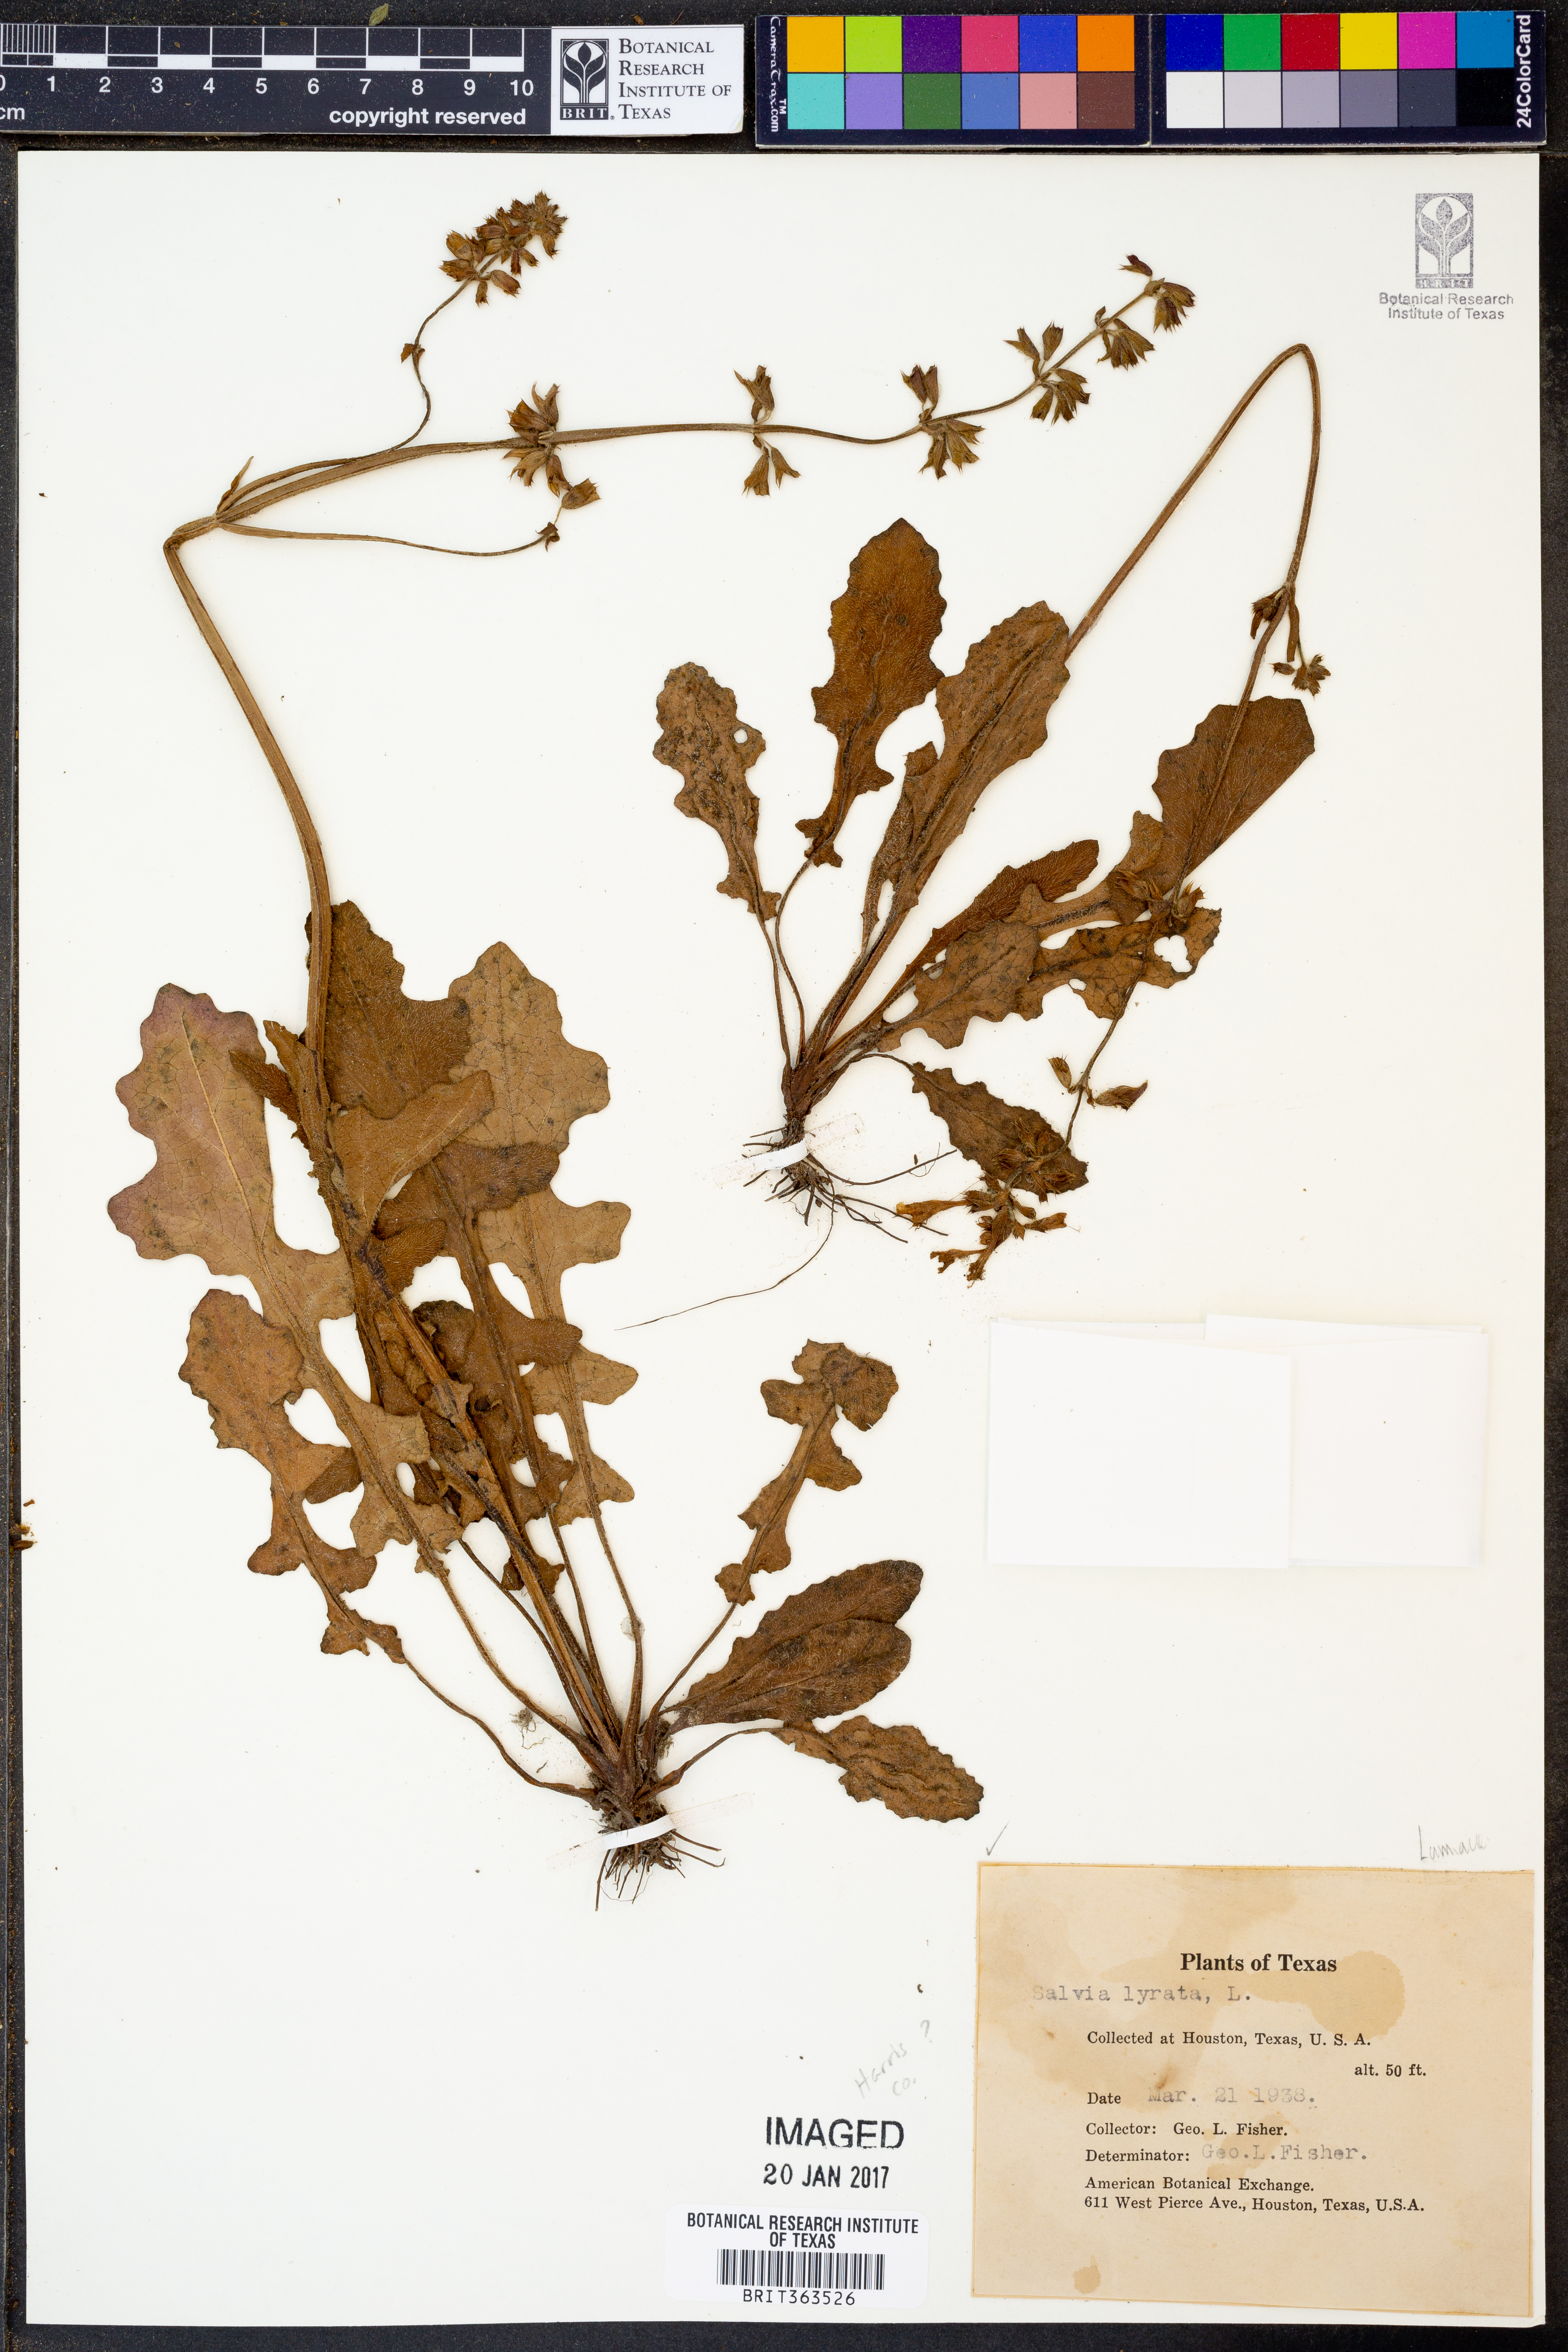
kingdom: Plantae
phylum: Tracheophyta
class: Magnoliopsida
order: Lamiales
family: Lamiaceae
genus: Salvia
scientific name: Salvia lyrata
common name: Cancerweed
